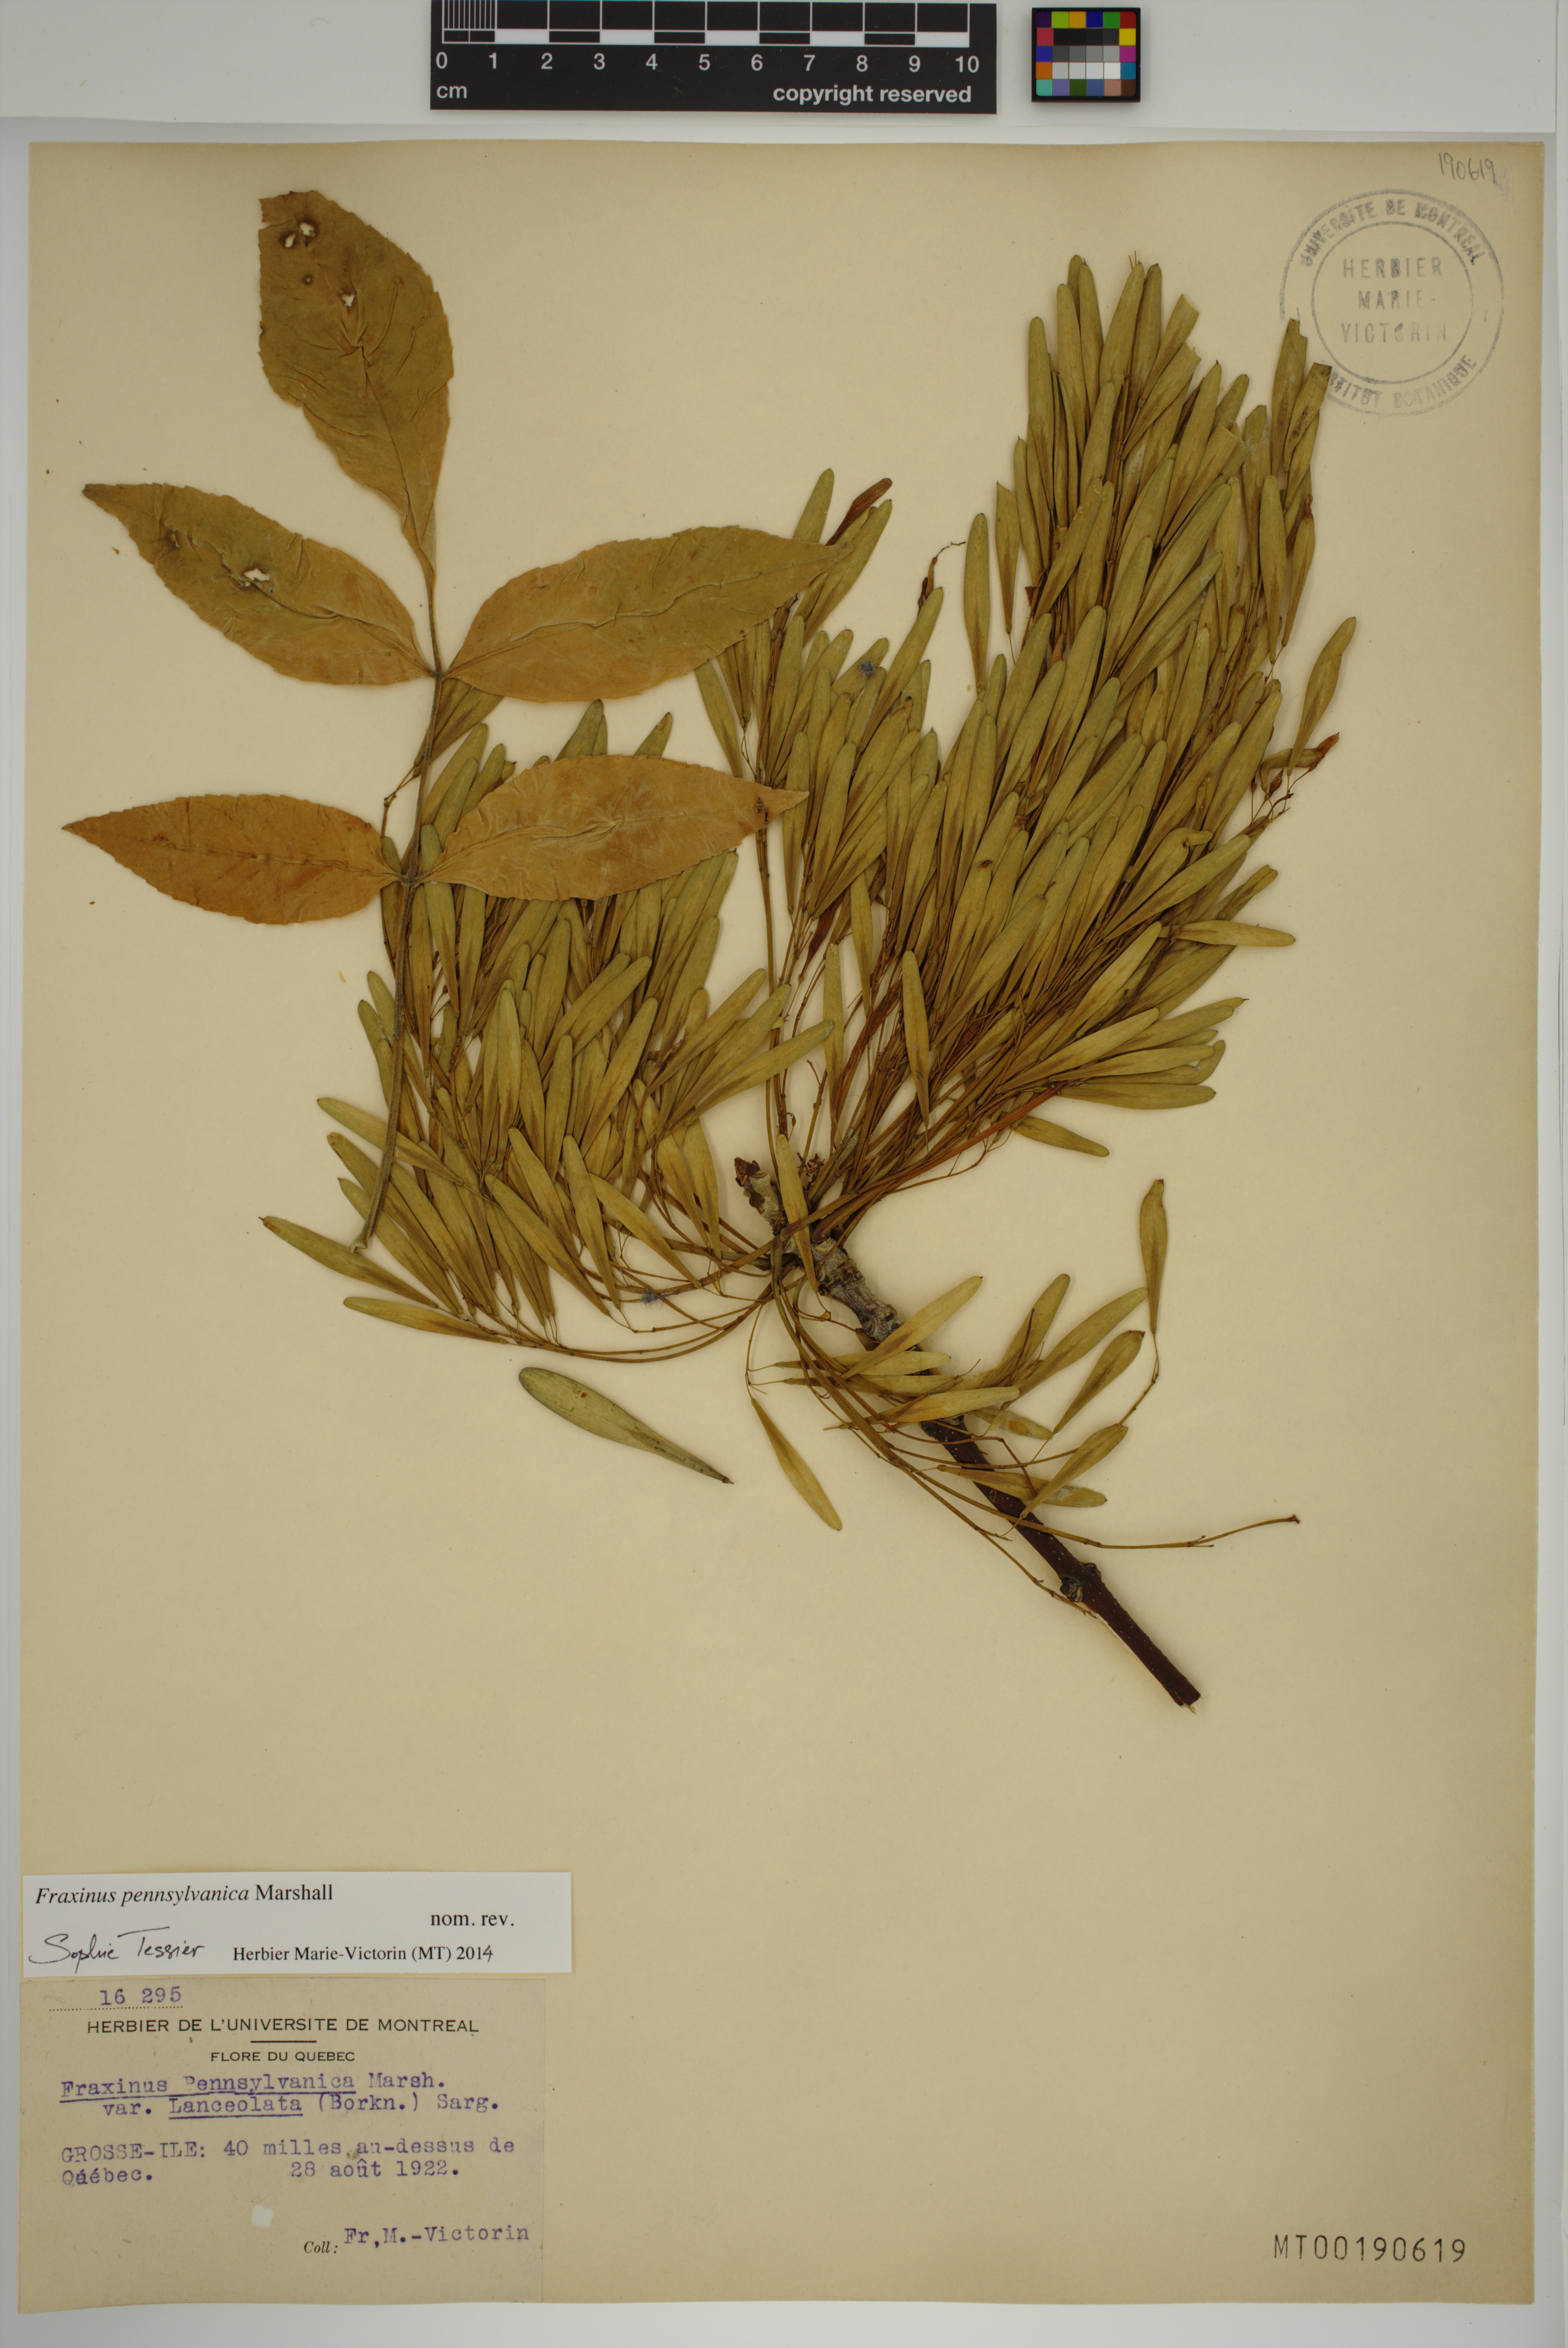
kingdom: Plantae
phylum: Tracheophyta
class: Magnoliopsida
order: Lamiales
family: Oleaceae
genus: Fraxinus
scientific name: Fraxinus pennsylvanica
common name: Green ash
